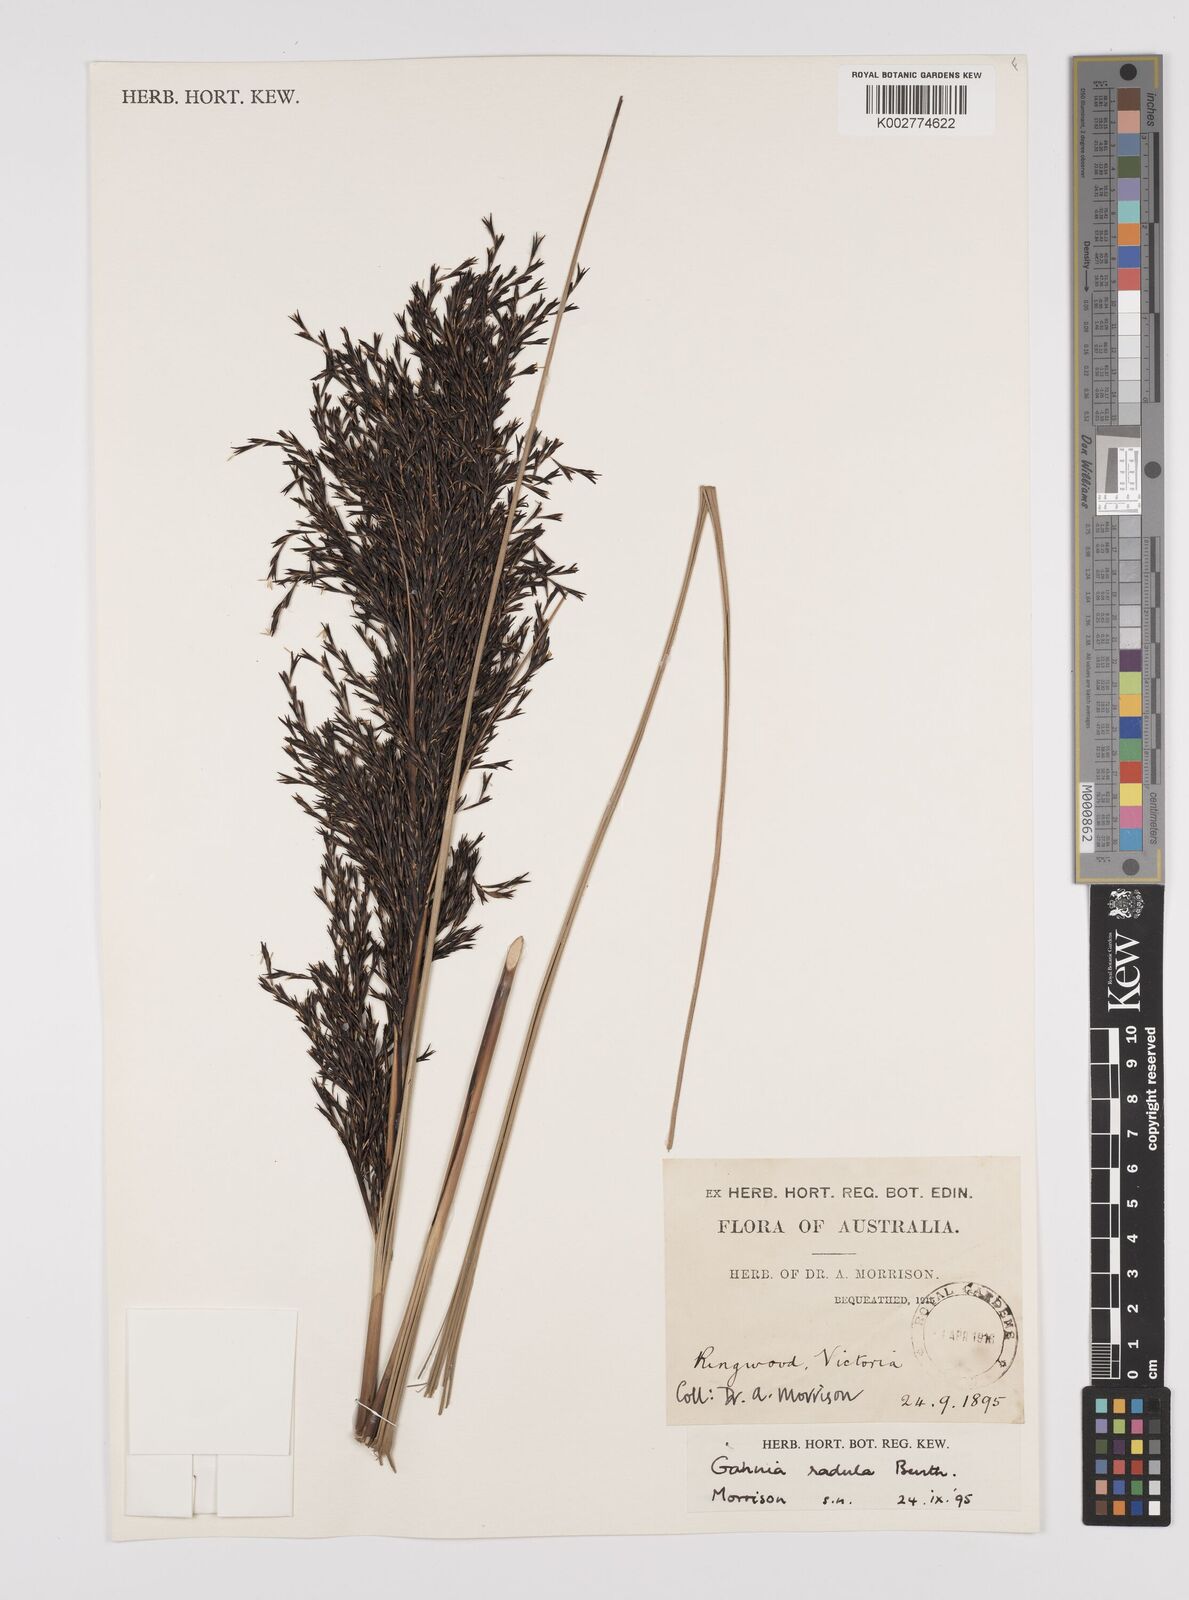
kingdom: Plantae
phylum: Tracheophyta
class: Liliopsida
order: Poales
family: Cyperaceae
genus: Gahnia
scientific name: Gahnia radula
